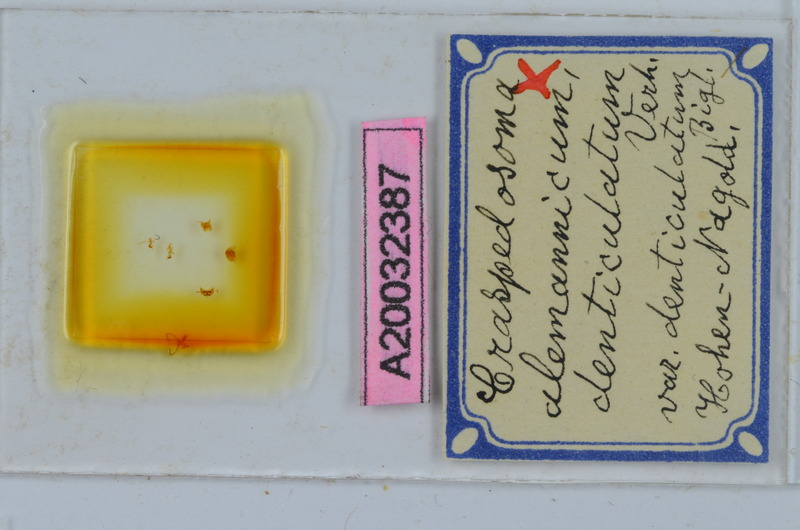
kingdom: Animalia
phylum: Arthropoda
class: Diplopoda
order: Chordeumatida
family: Craspedosomatidae
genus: Craspedosoma
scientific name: Craspedosoma rawlinsii
